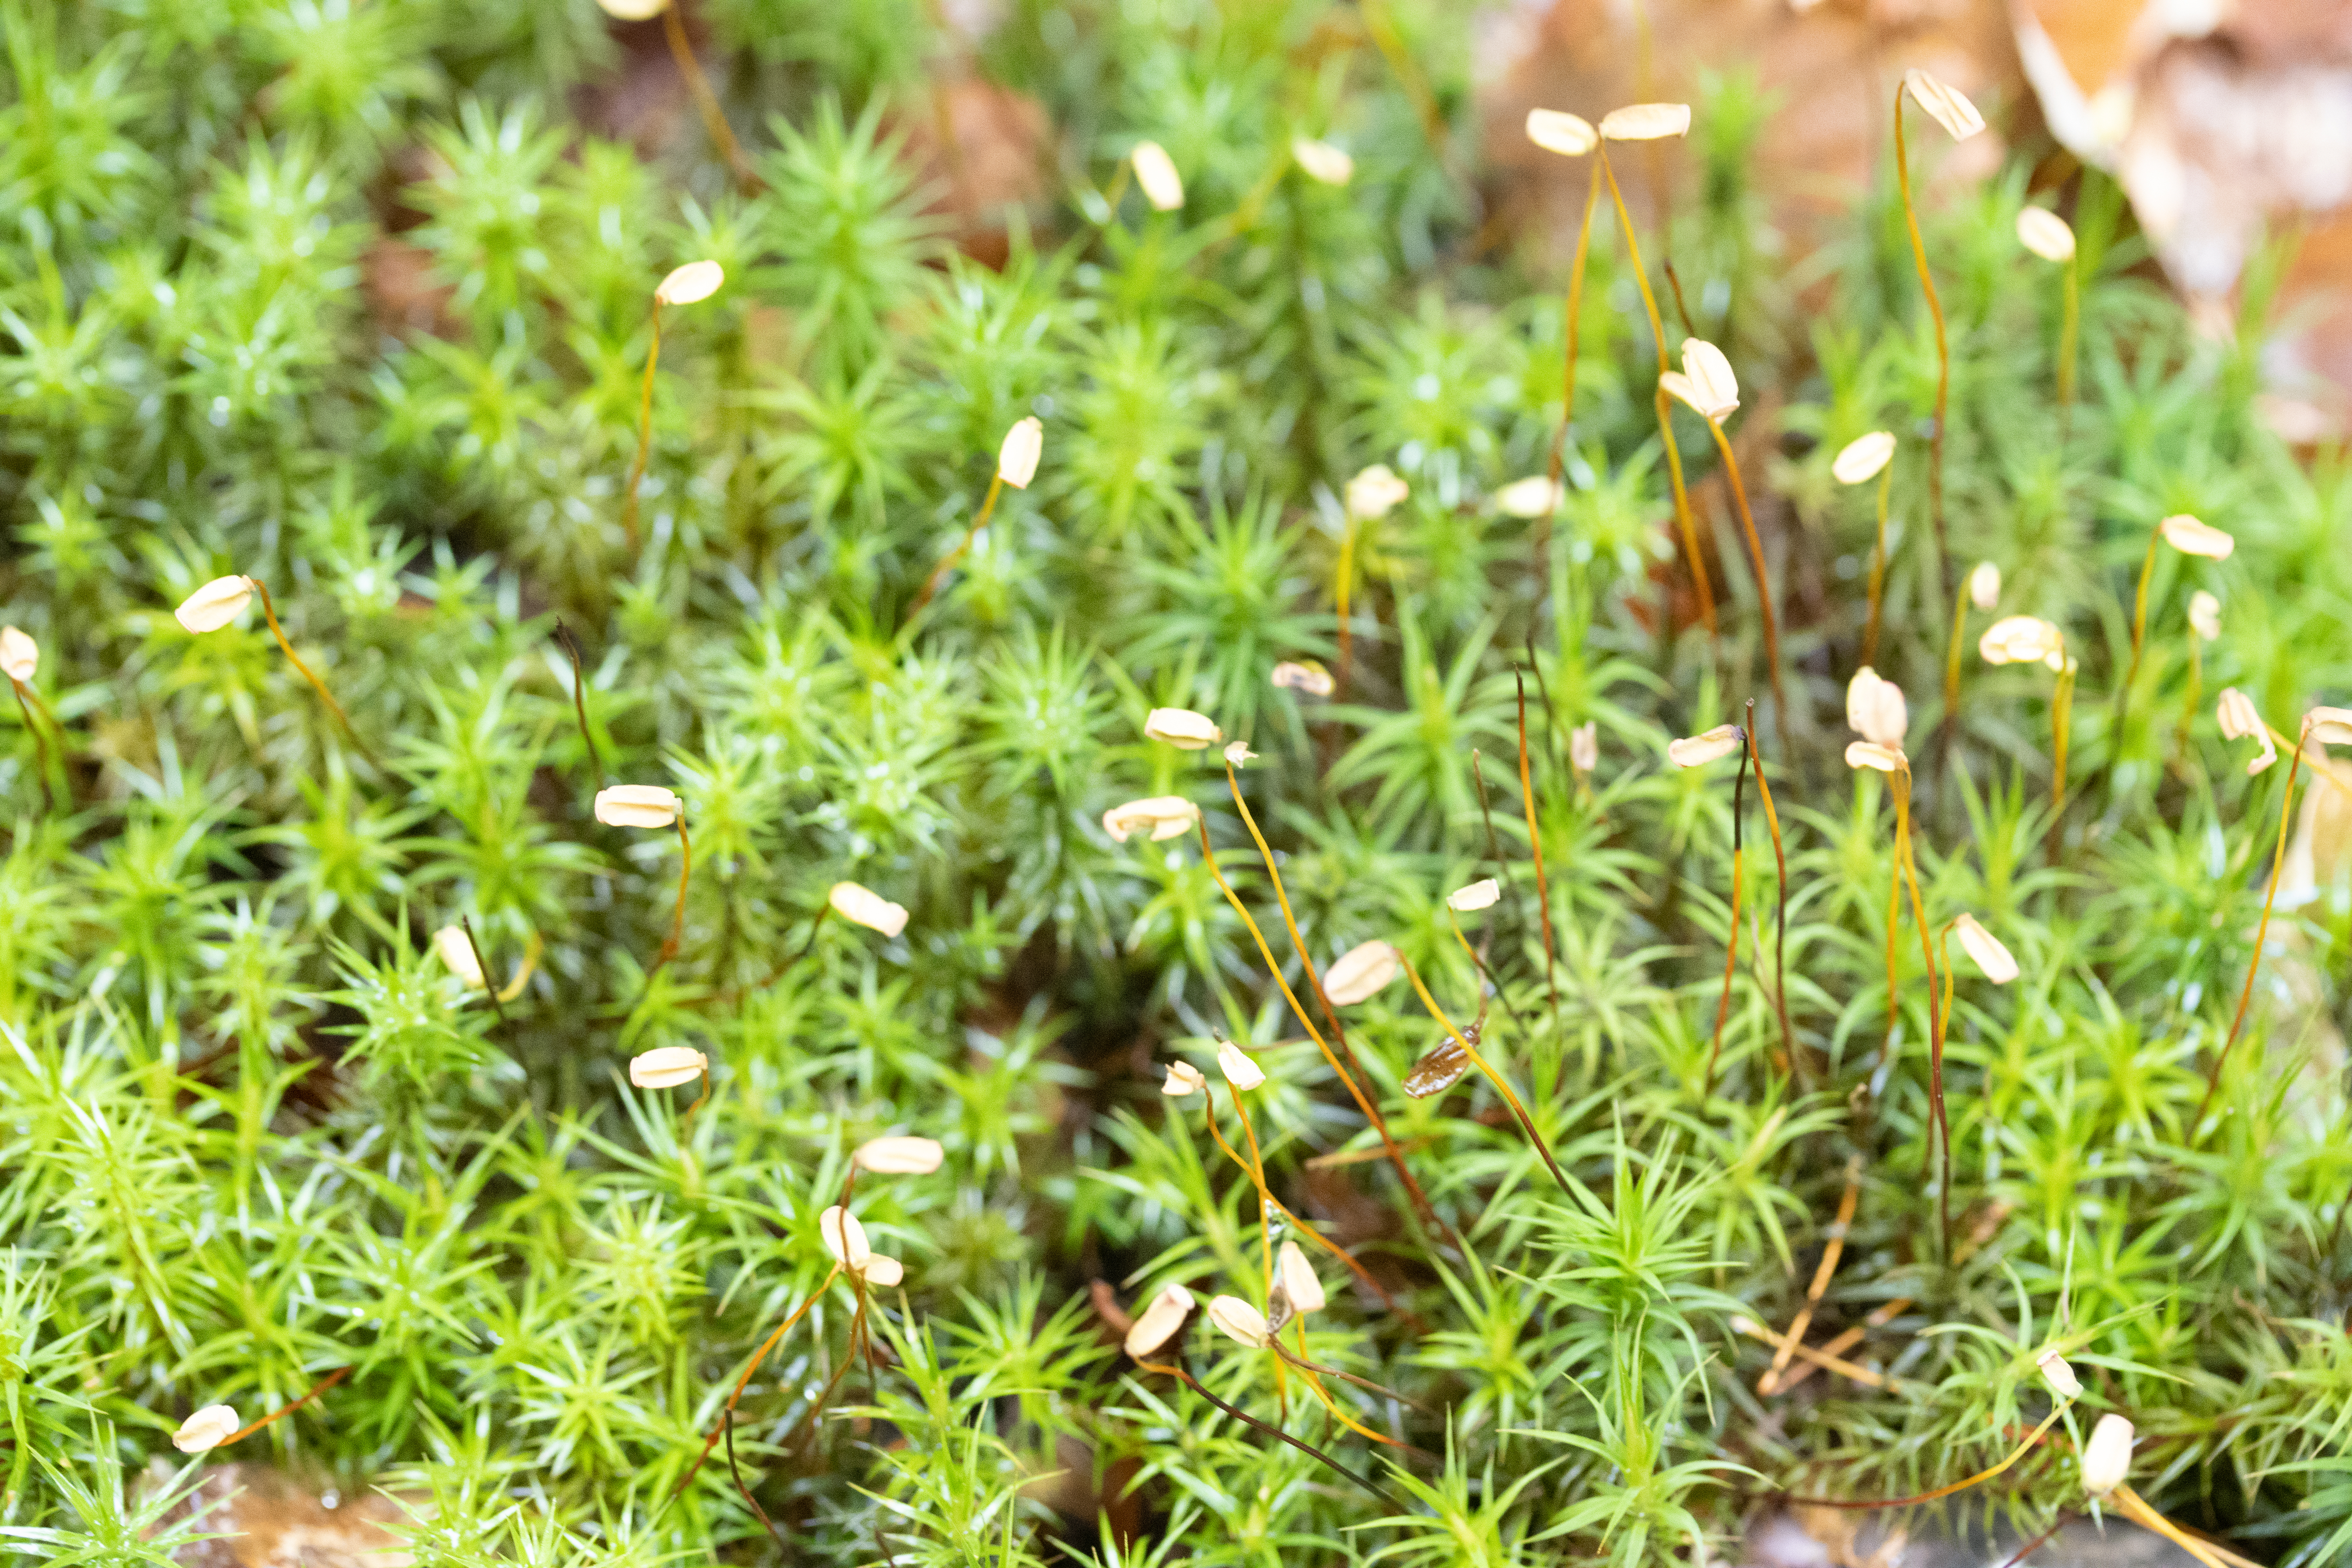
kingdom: Plantae
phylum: Bryophyta
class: Polytrichopsida
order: Polytrichales
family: Polytrichaceae
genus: Polytrichum
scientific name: Polytrichum formosum
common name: Skov-jomfruhår
